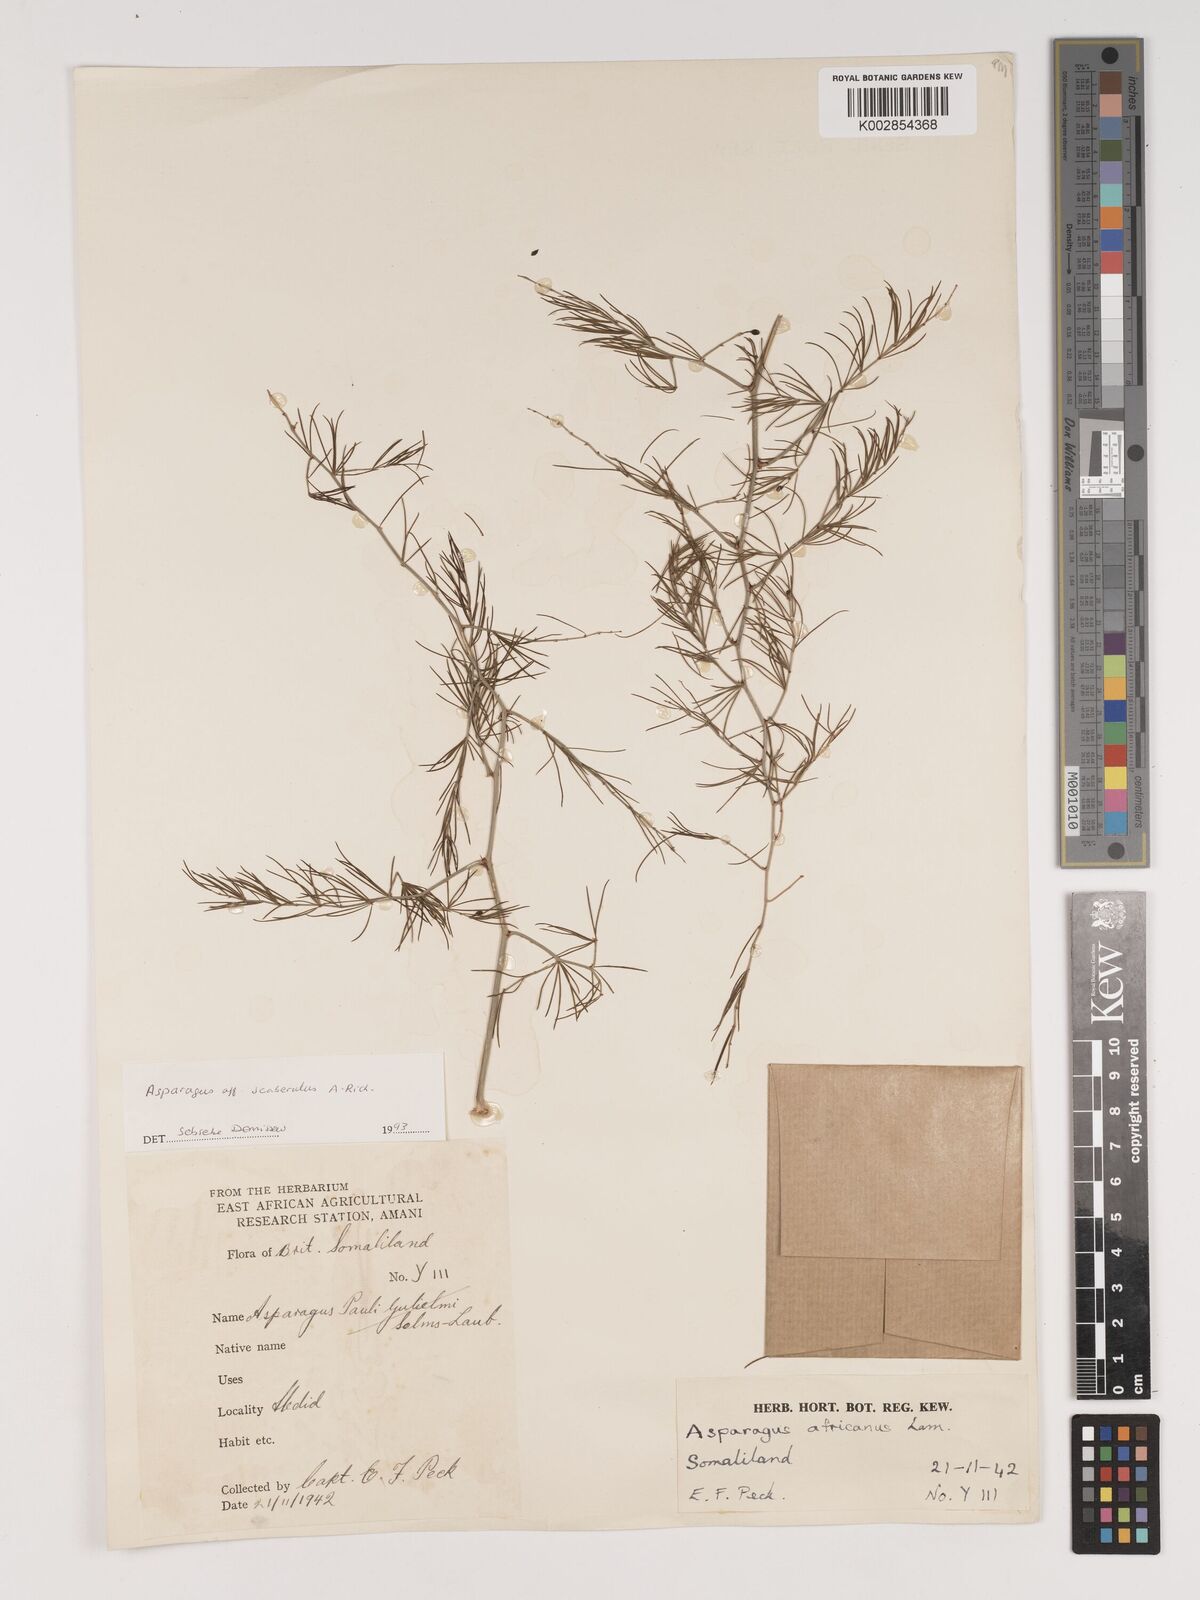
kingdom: Plantae
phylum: Tracheophyta
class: Liliopsida
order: Asparagales
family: Asparagaceae
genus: Asparagus
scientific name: Asparagus scaberulus
